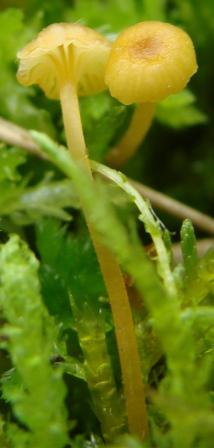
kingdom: Fungi
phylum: Basidiomycota
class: Agaricomycetes
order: Hymenochaetales
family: Rickenellaceae
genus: Rickenella
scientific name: Rickenella fibula
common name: orange mosnavlehat
